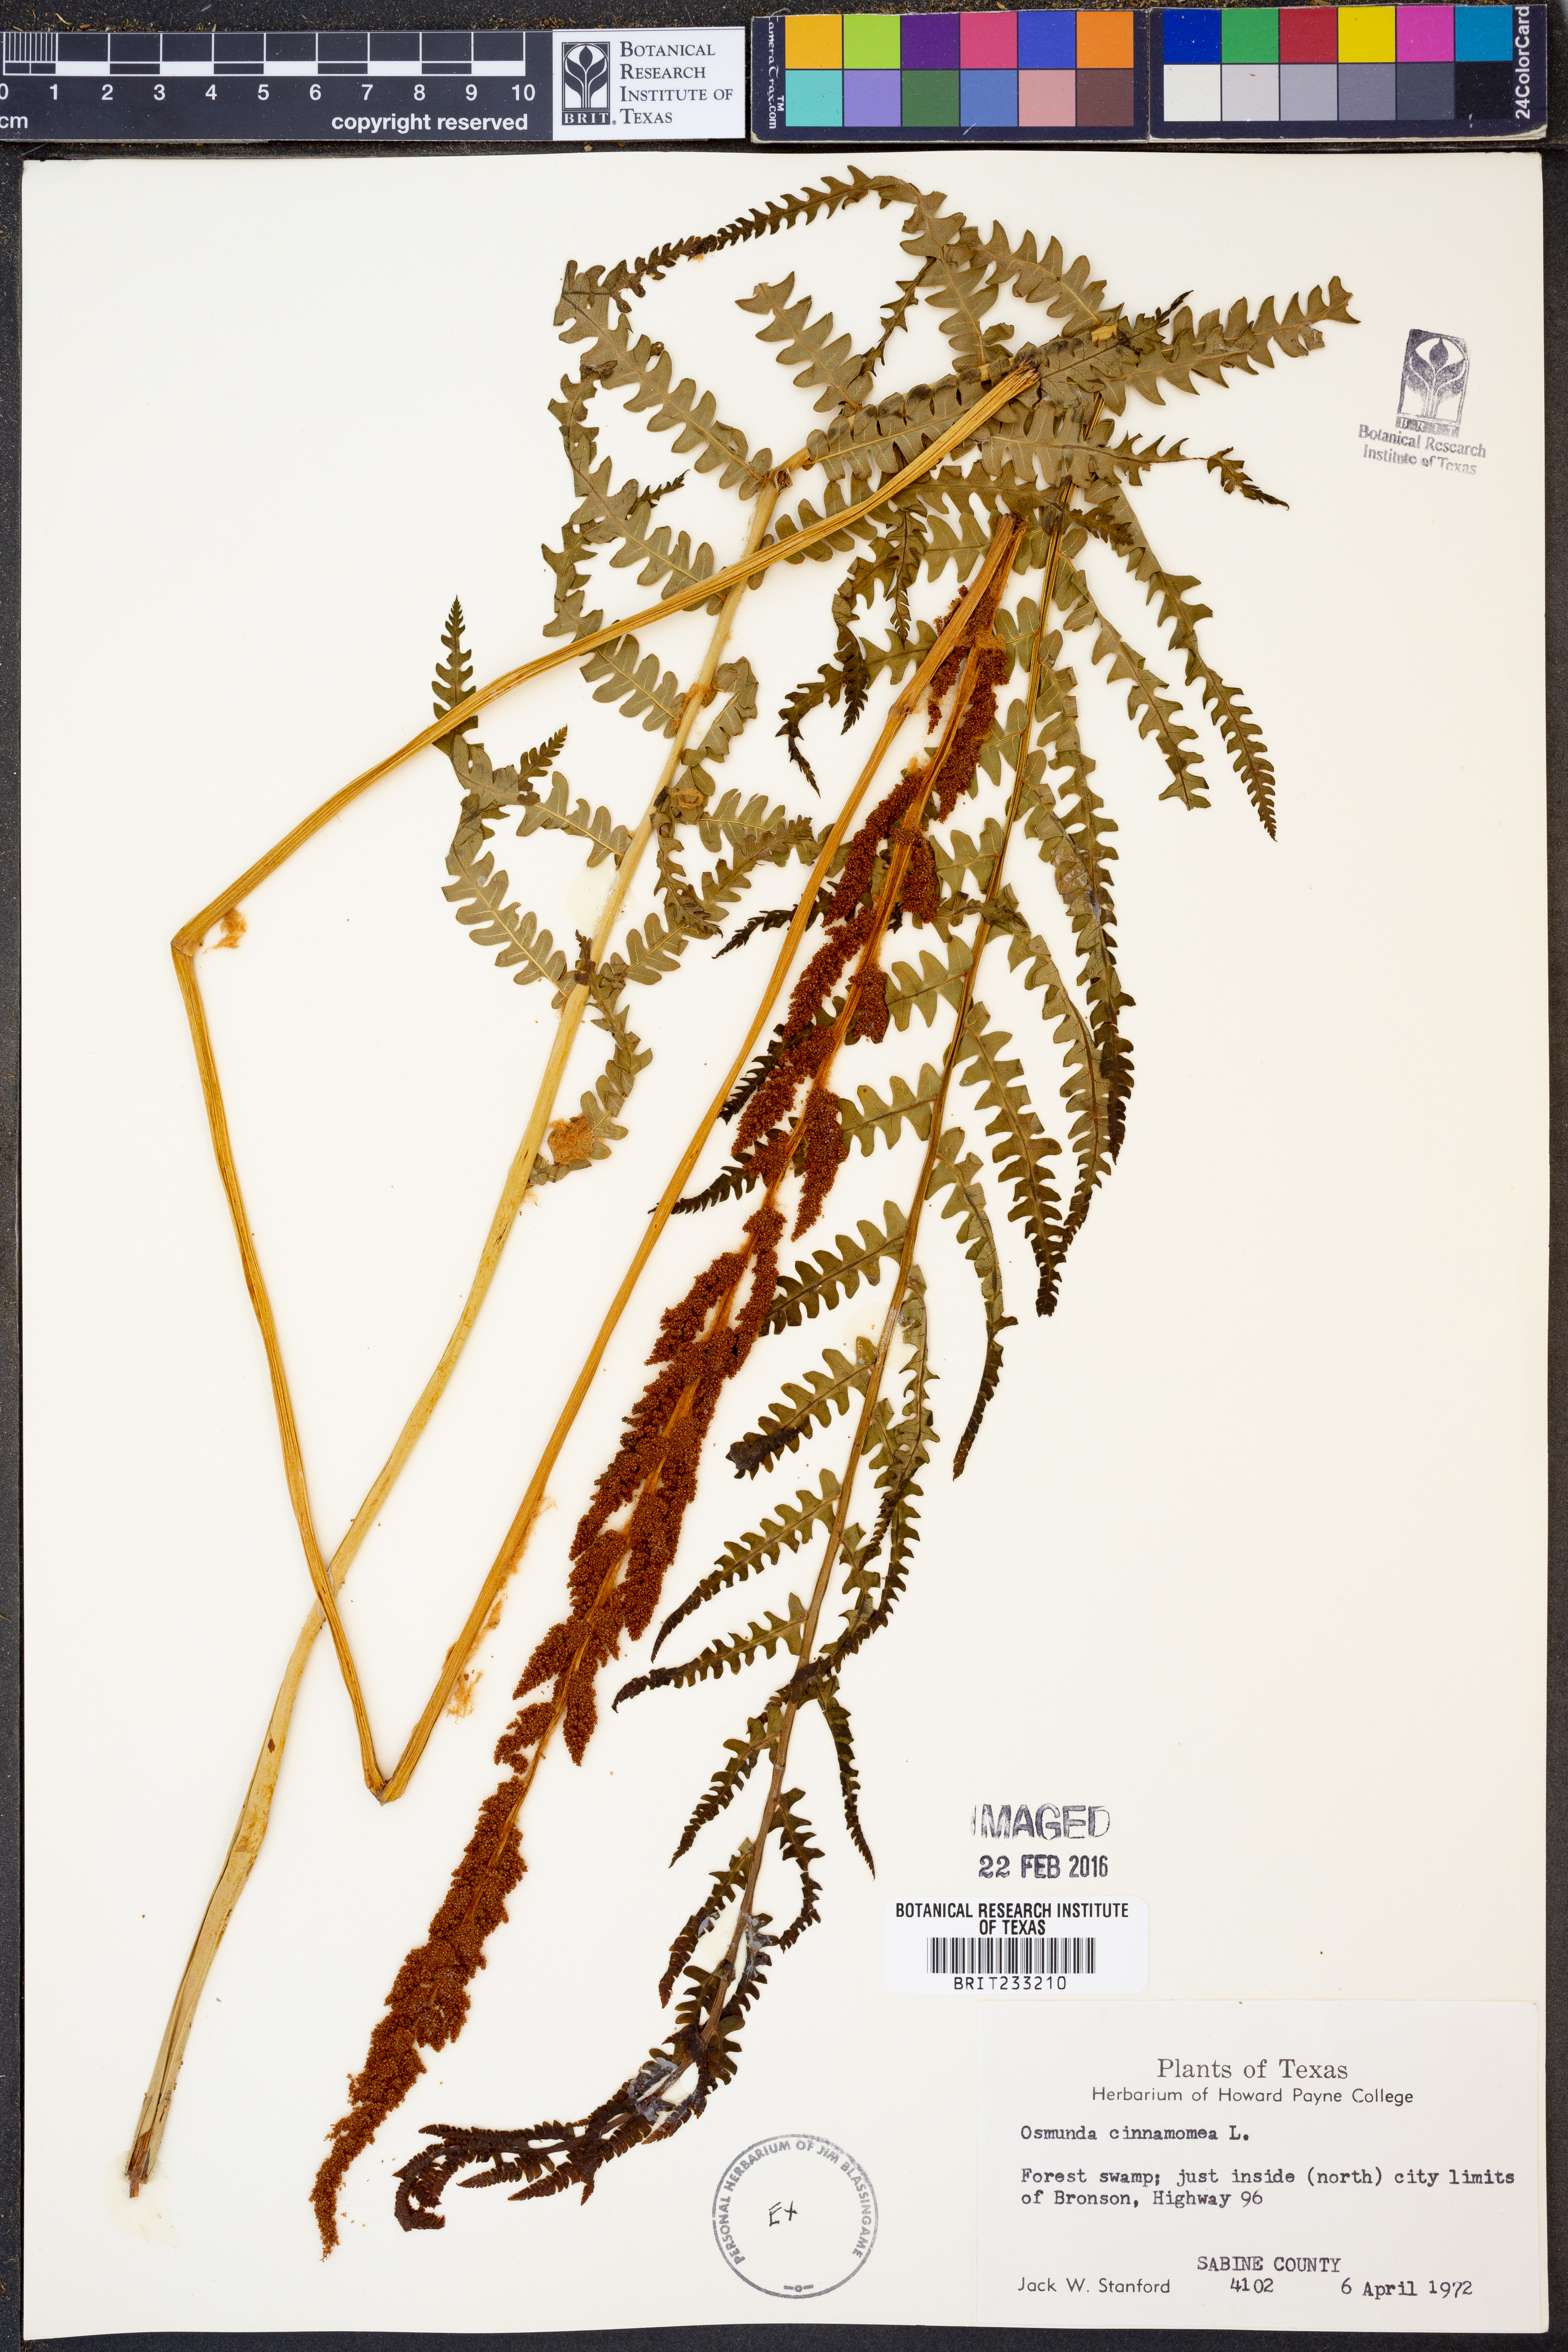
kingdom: Plantae
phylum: Tracheophyta
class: Polypodiopsida
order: Osmundales
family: Osmundaceae
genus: Osmundastrum
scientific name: Osmundastrum cinnamomeum
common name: Cinnamon fern
